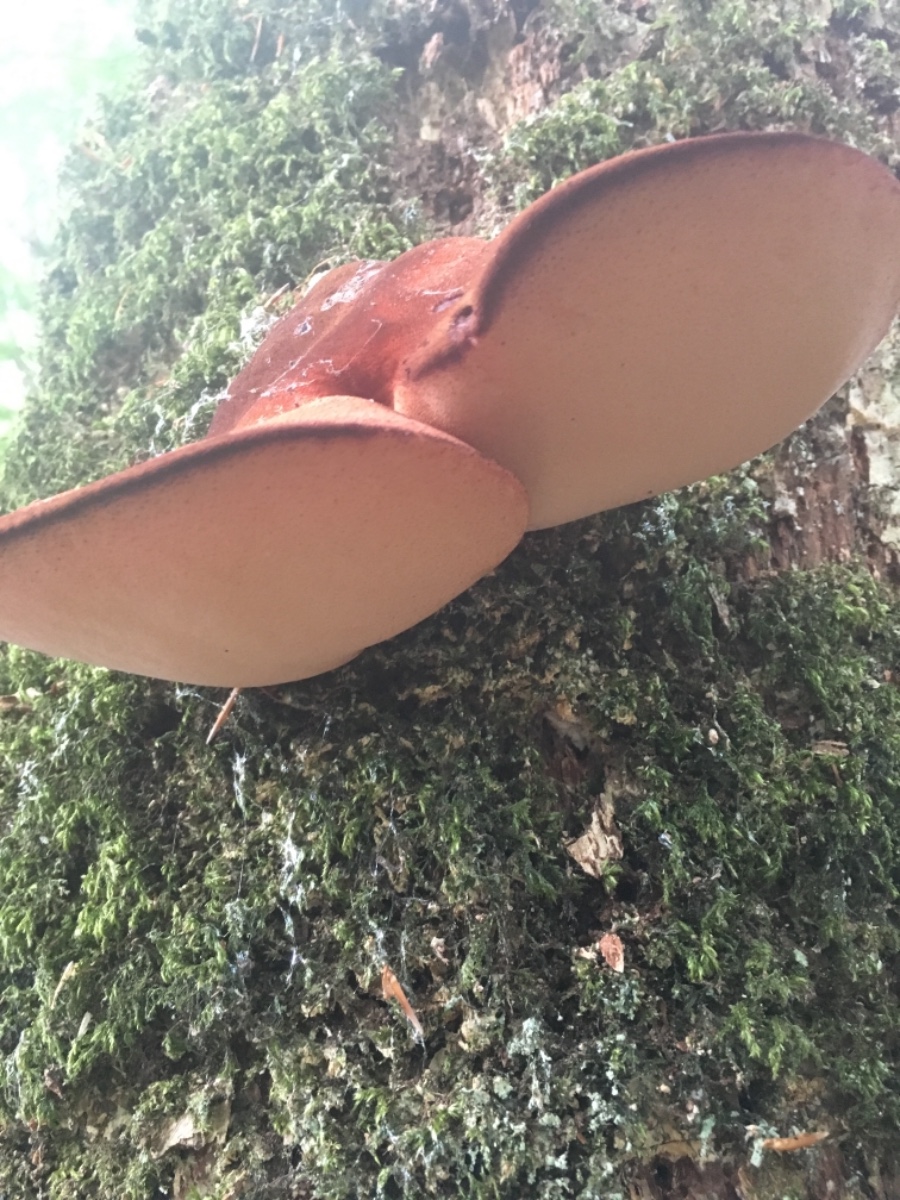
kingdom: Fungi
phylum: Basidiomycota
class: Agaricomycetes
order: Agaricales
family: Fistulinaceae
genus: Fistulina
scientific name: Fistulina hepatica
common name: oksetunge
